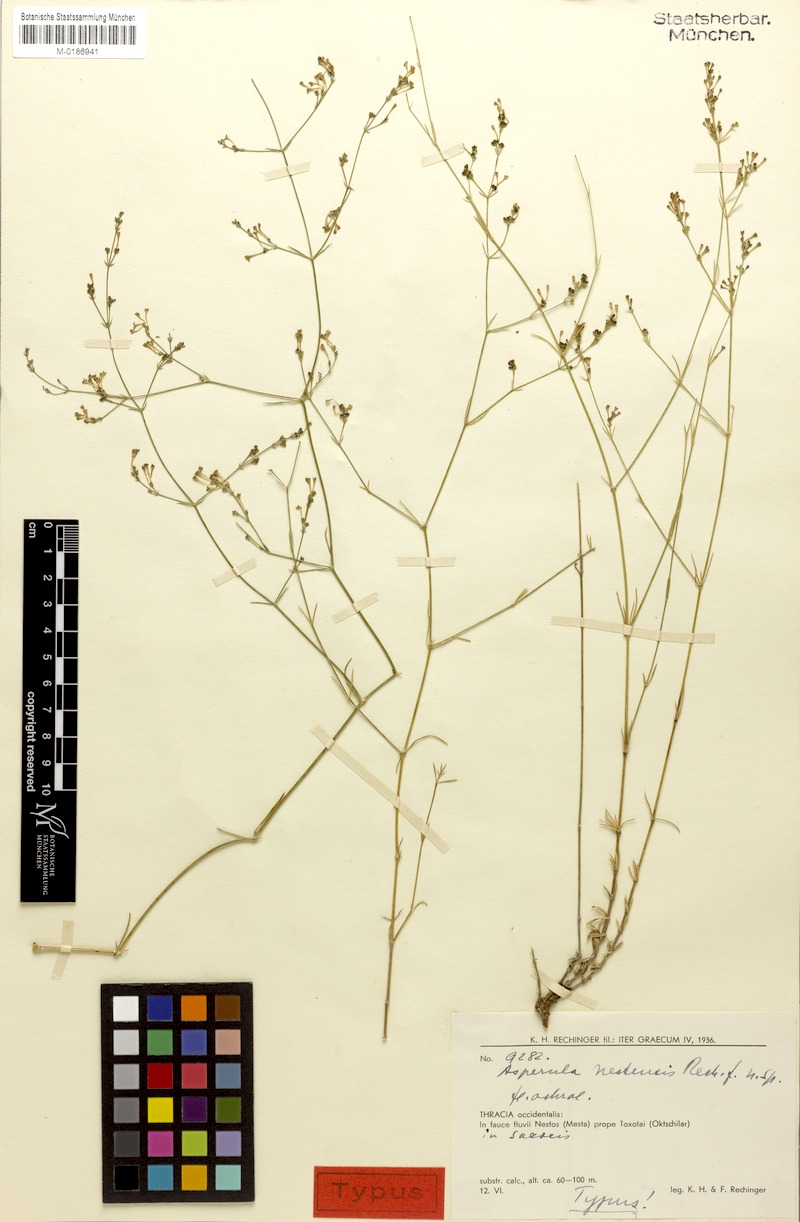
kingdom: Plantae
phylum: Tracheophyta
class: Magnoliopsida
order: Gentianales
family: Rubiaceae
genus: Cynanchica
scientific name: Cynanchica aristata
